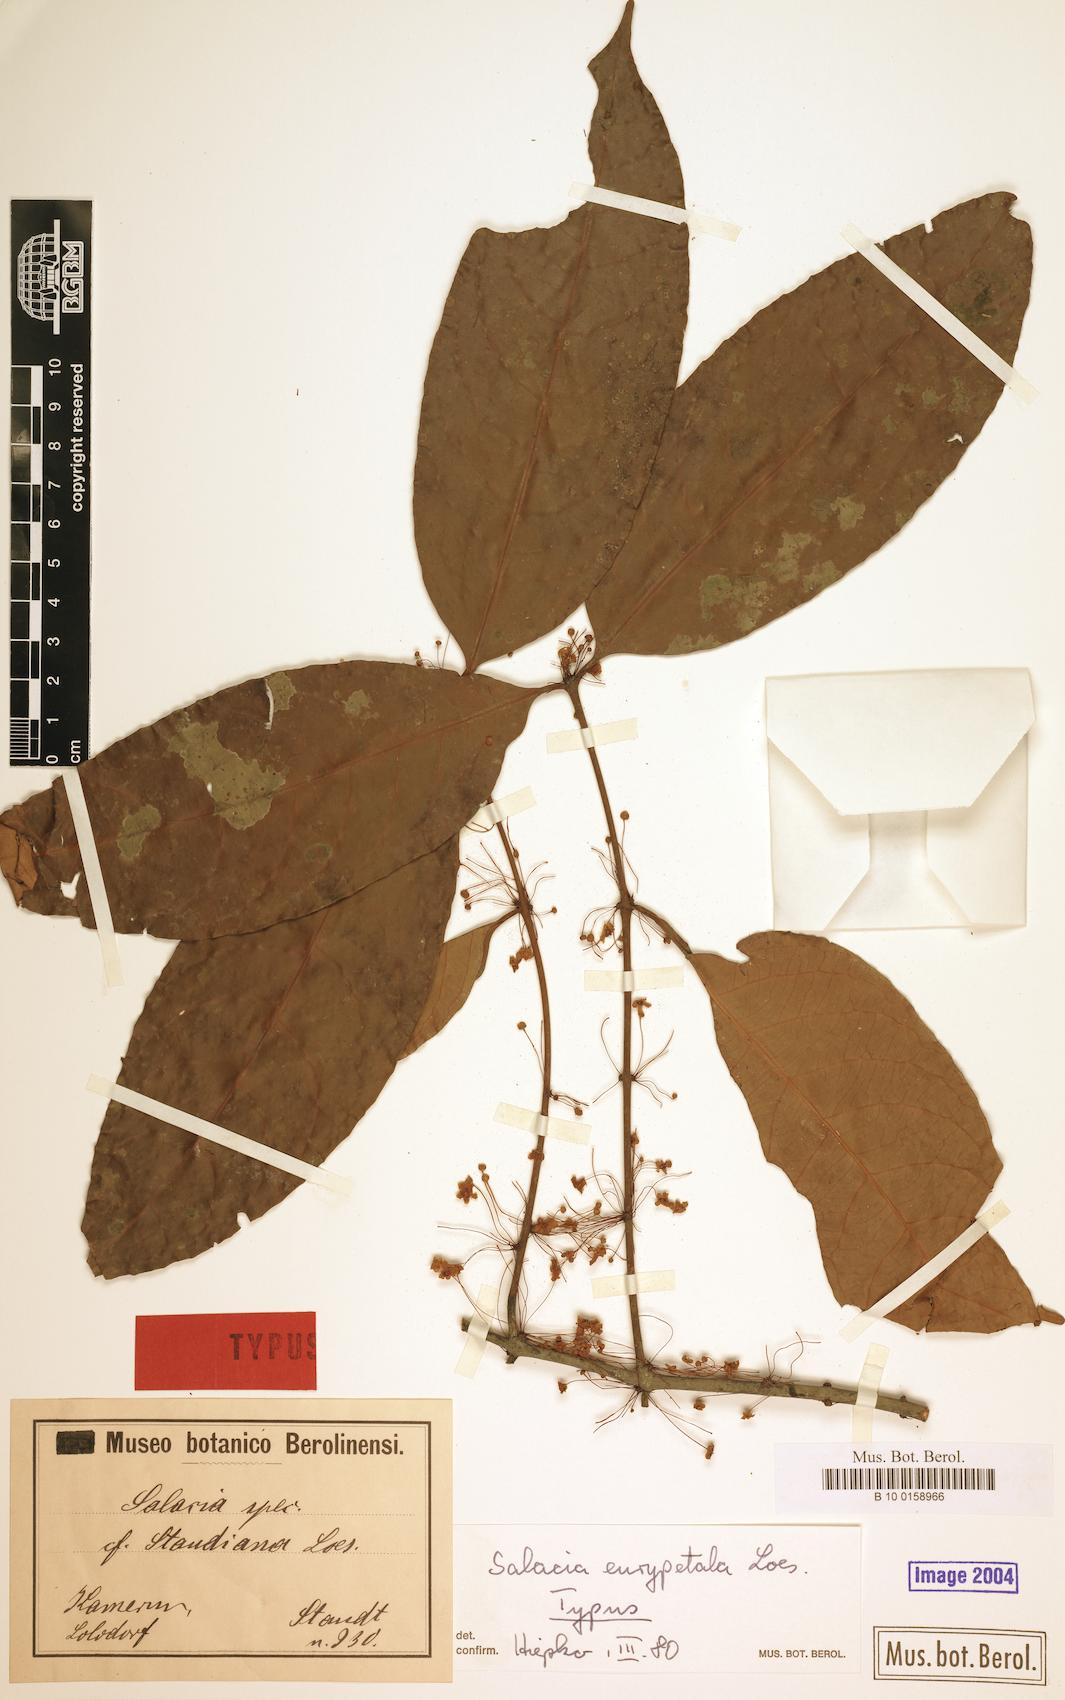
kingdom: Plantae
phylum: Tracheophyta
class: Magnoliopsida
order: Celastrales
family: Celastraceae
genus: Salacia
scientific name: Salacia eurypetala
